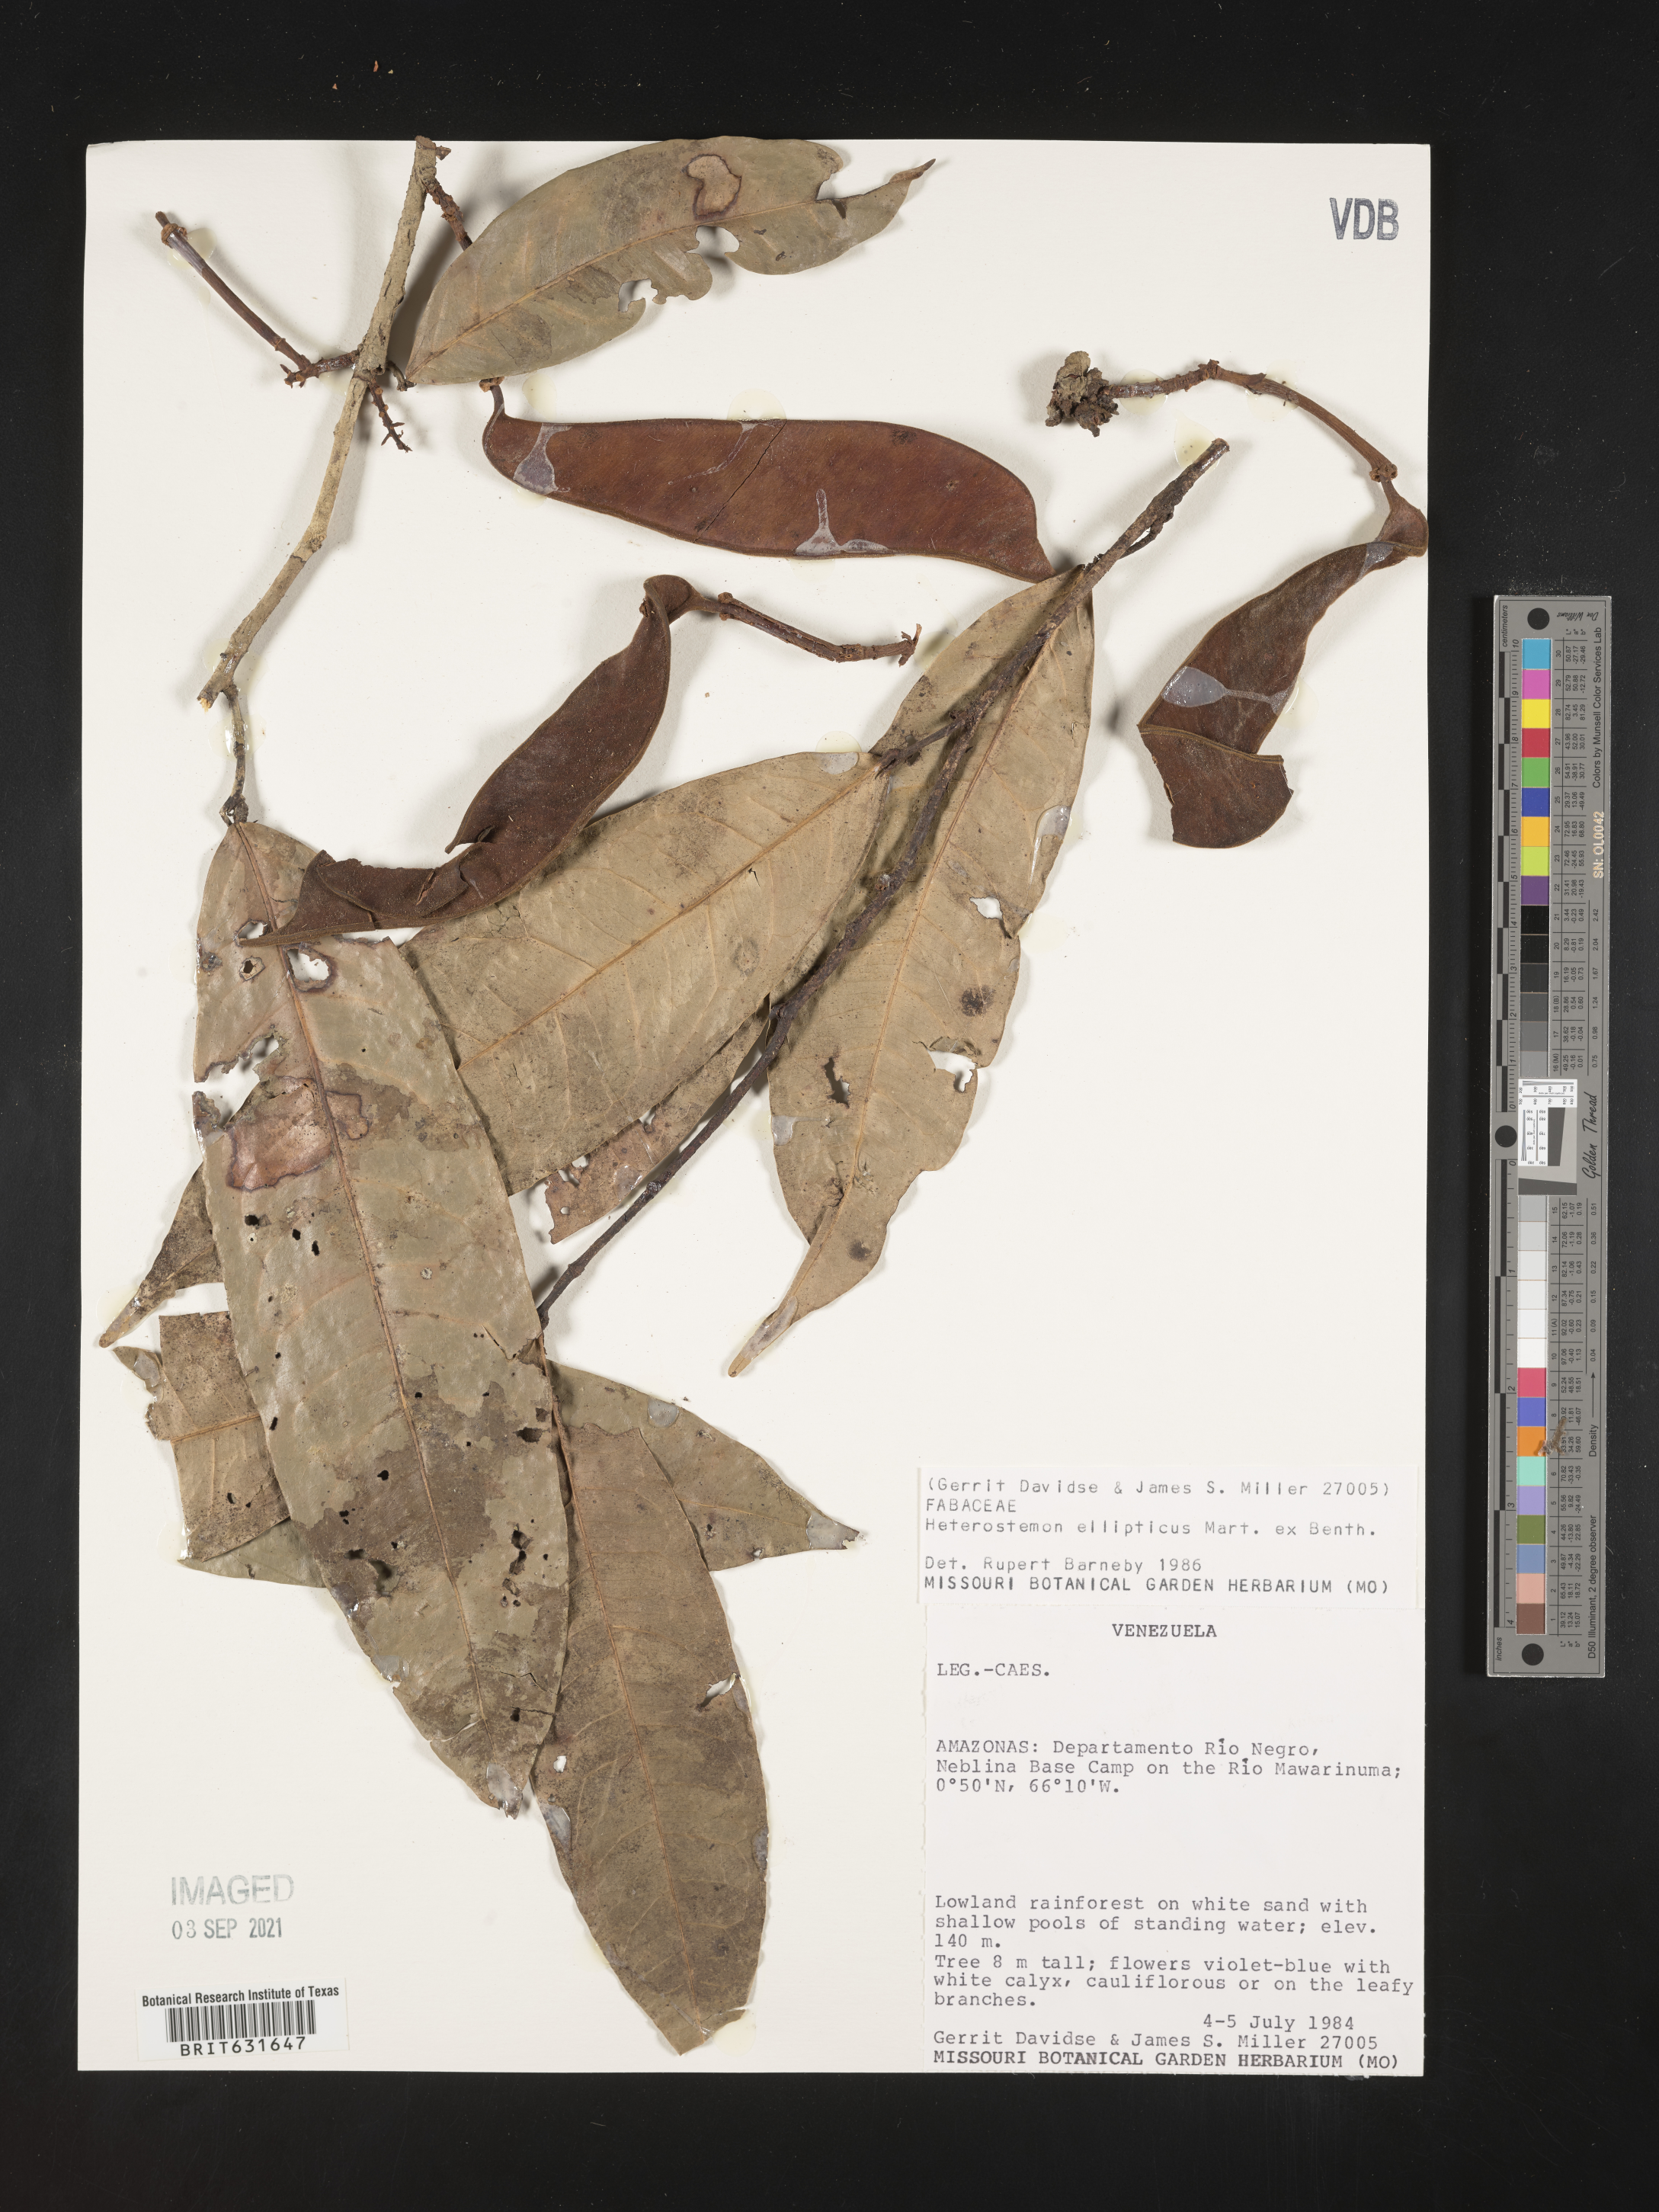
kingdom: Plantae
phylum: Tracheophyta
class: Magnoliopsida
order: Fabales
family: Fabaceae
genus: Heterostemon
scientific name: Heterostemon ellipticus
